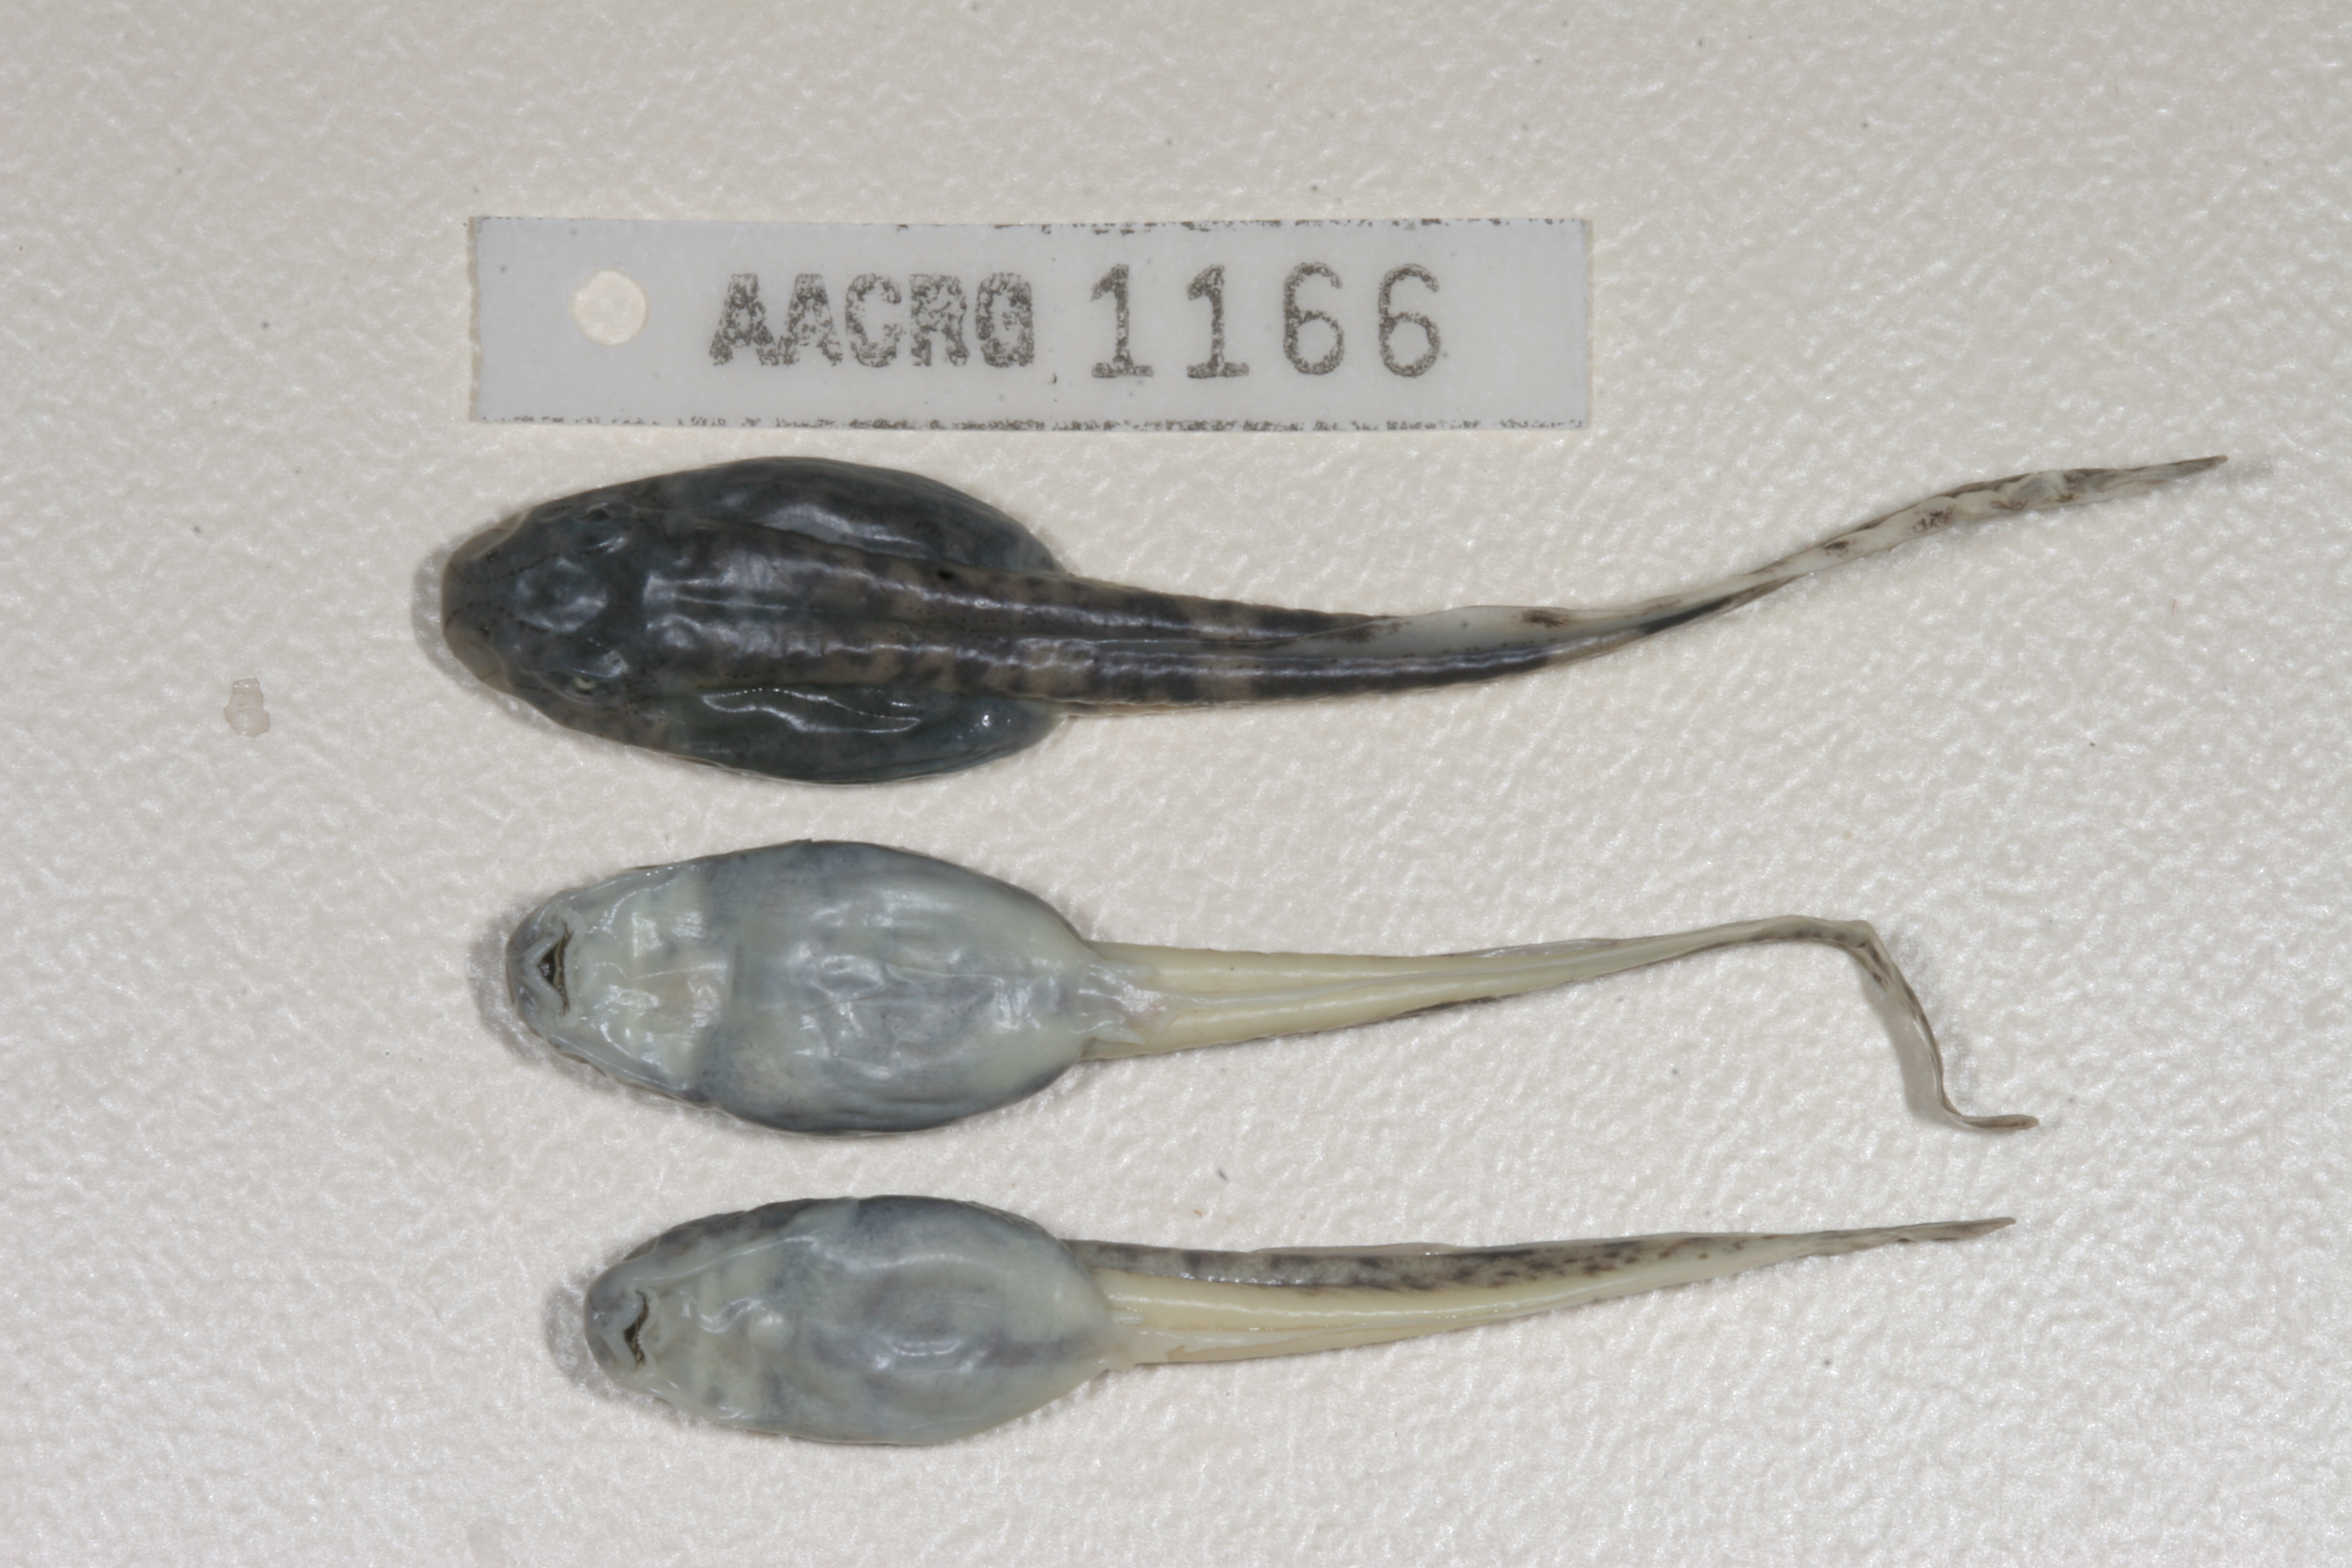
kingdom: Animalia
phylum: Chordata
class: Amphibia
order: Anura
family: Pyxicephalidae
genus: Amietia
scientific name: Amietia vertebralis
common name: Drakensberg stream frog
